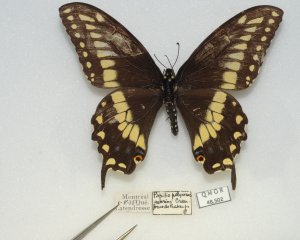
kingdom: Animalia
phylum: Arthropoda
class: Insecta
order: Lepidoptera
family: Papilionidae
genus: Papilio
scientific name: Papilio polyxenes
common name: Black Swallowtail
